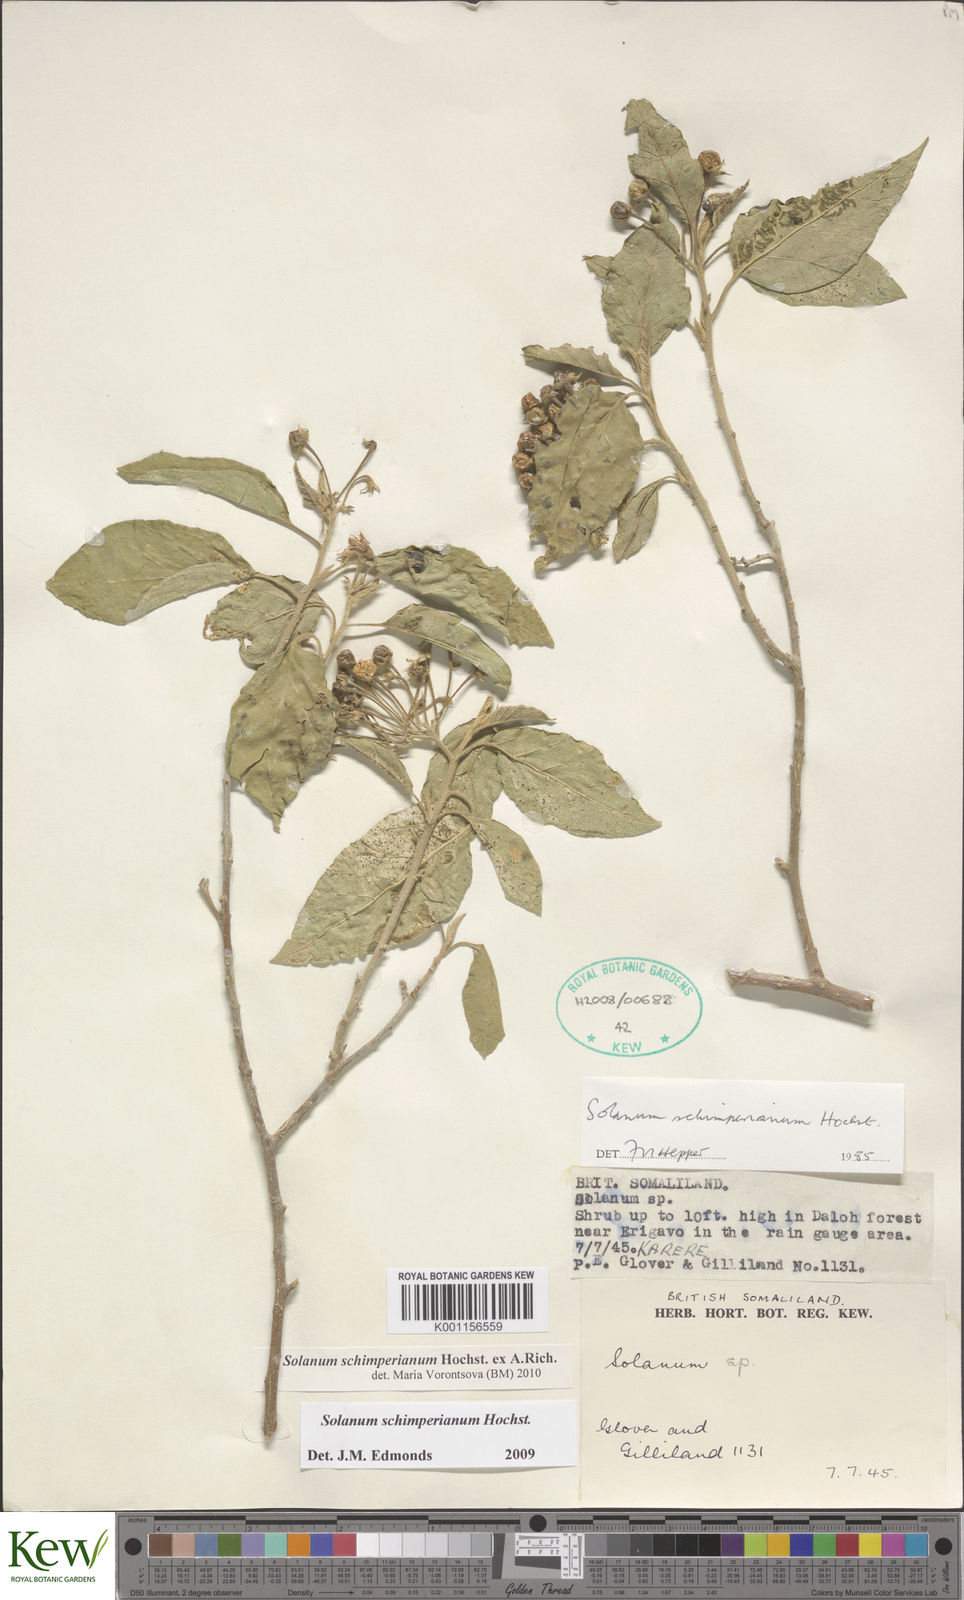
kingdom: Plantae
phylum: Tracheophyta
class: Magnoliopsida
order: Solanales
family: Solanaceae
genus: Solanum
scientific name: Solanum
